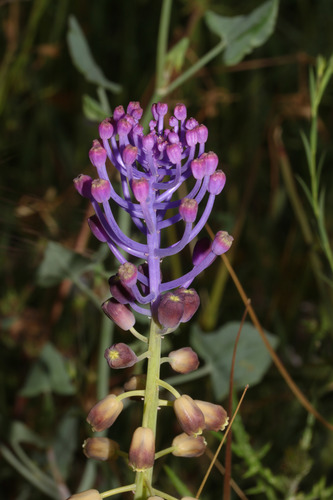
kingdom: Plantae
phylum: Tracheophyta
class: Liliopsida
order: Asparagales
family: Asparagaceae
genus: Muscari
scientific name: Muscari comosum
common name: Tassel hyacinth
